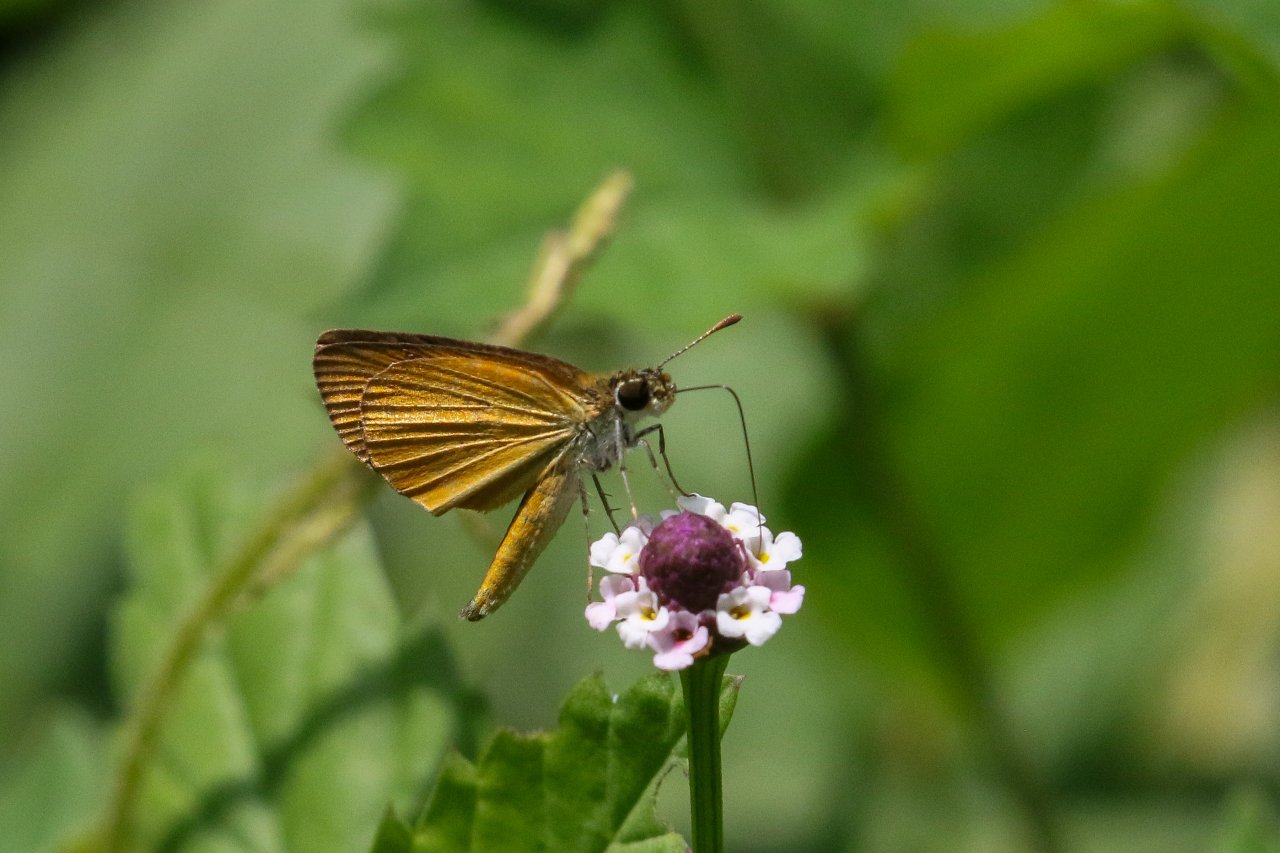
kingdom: Animalia
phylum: Arthropoda
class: Insecta
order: Lepidoptera
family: Hesperiidae
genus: Ancyloxypha
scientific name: Ancyloxypha numitor
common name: Least Skipper
